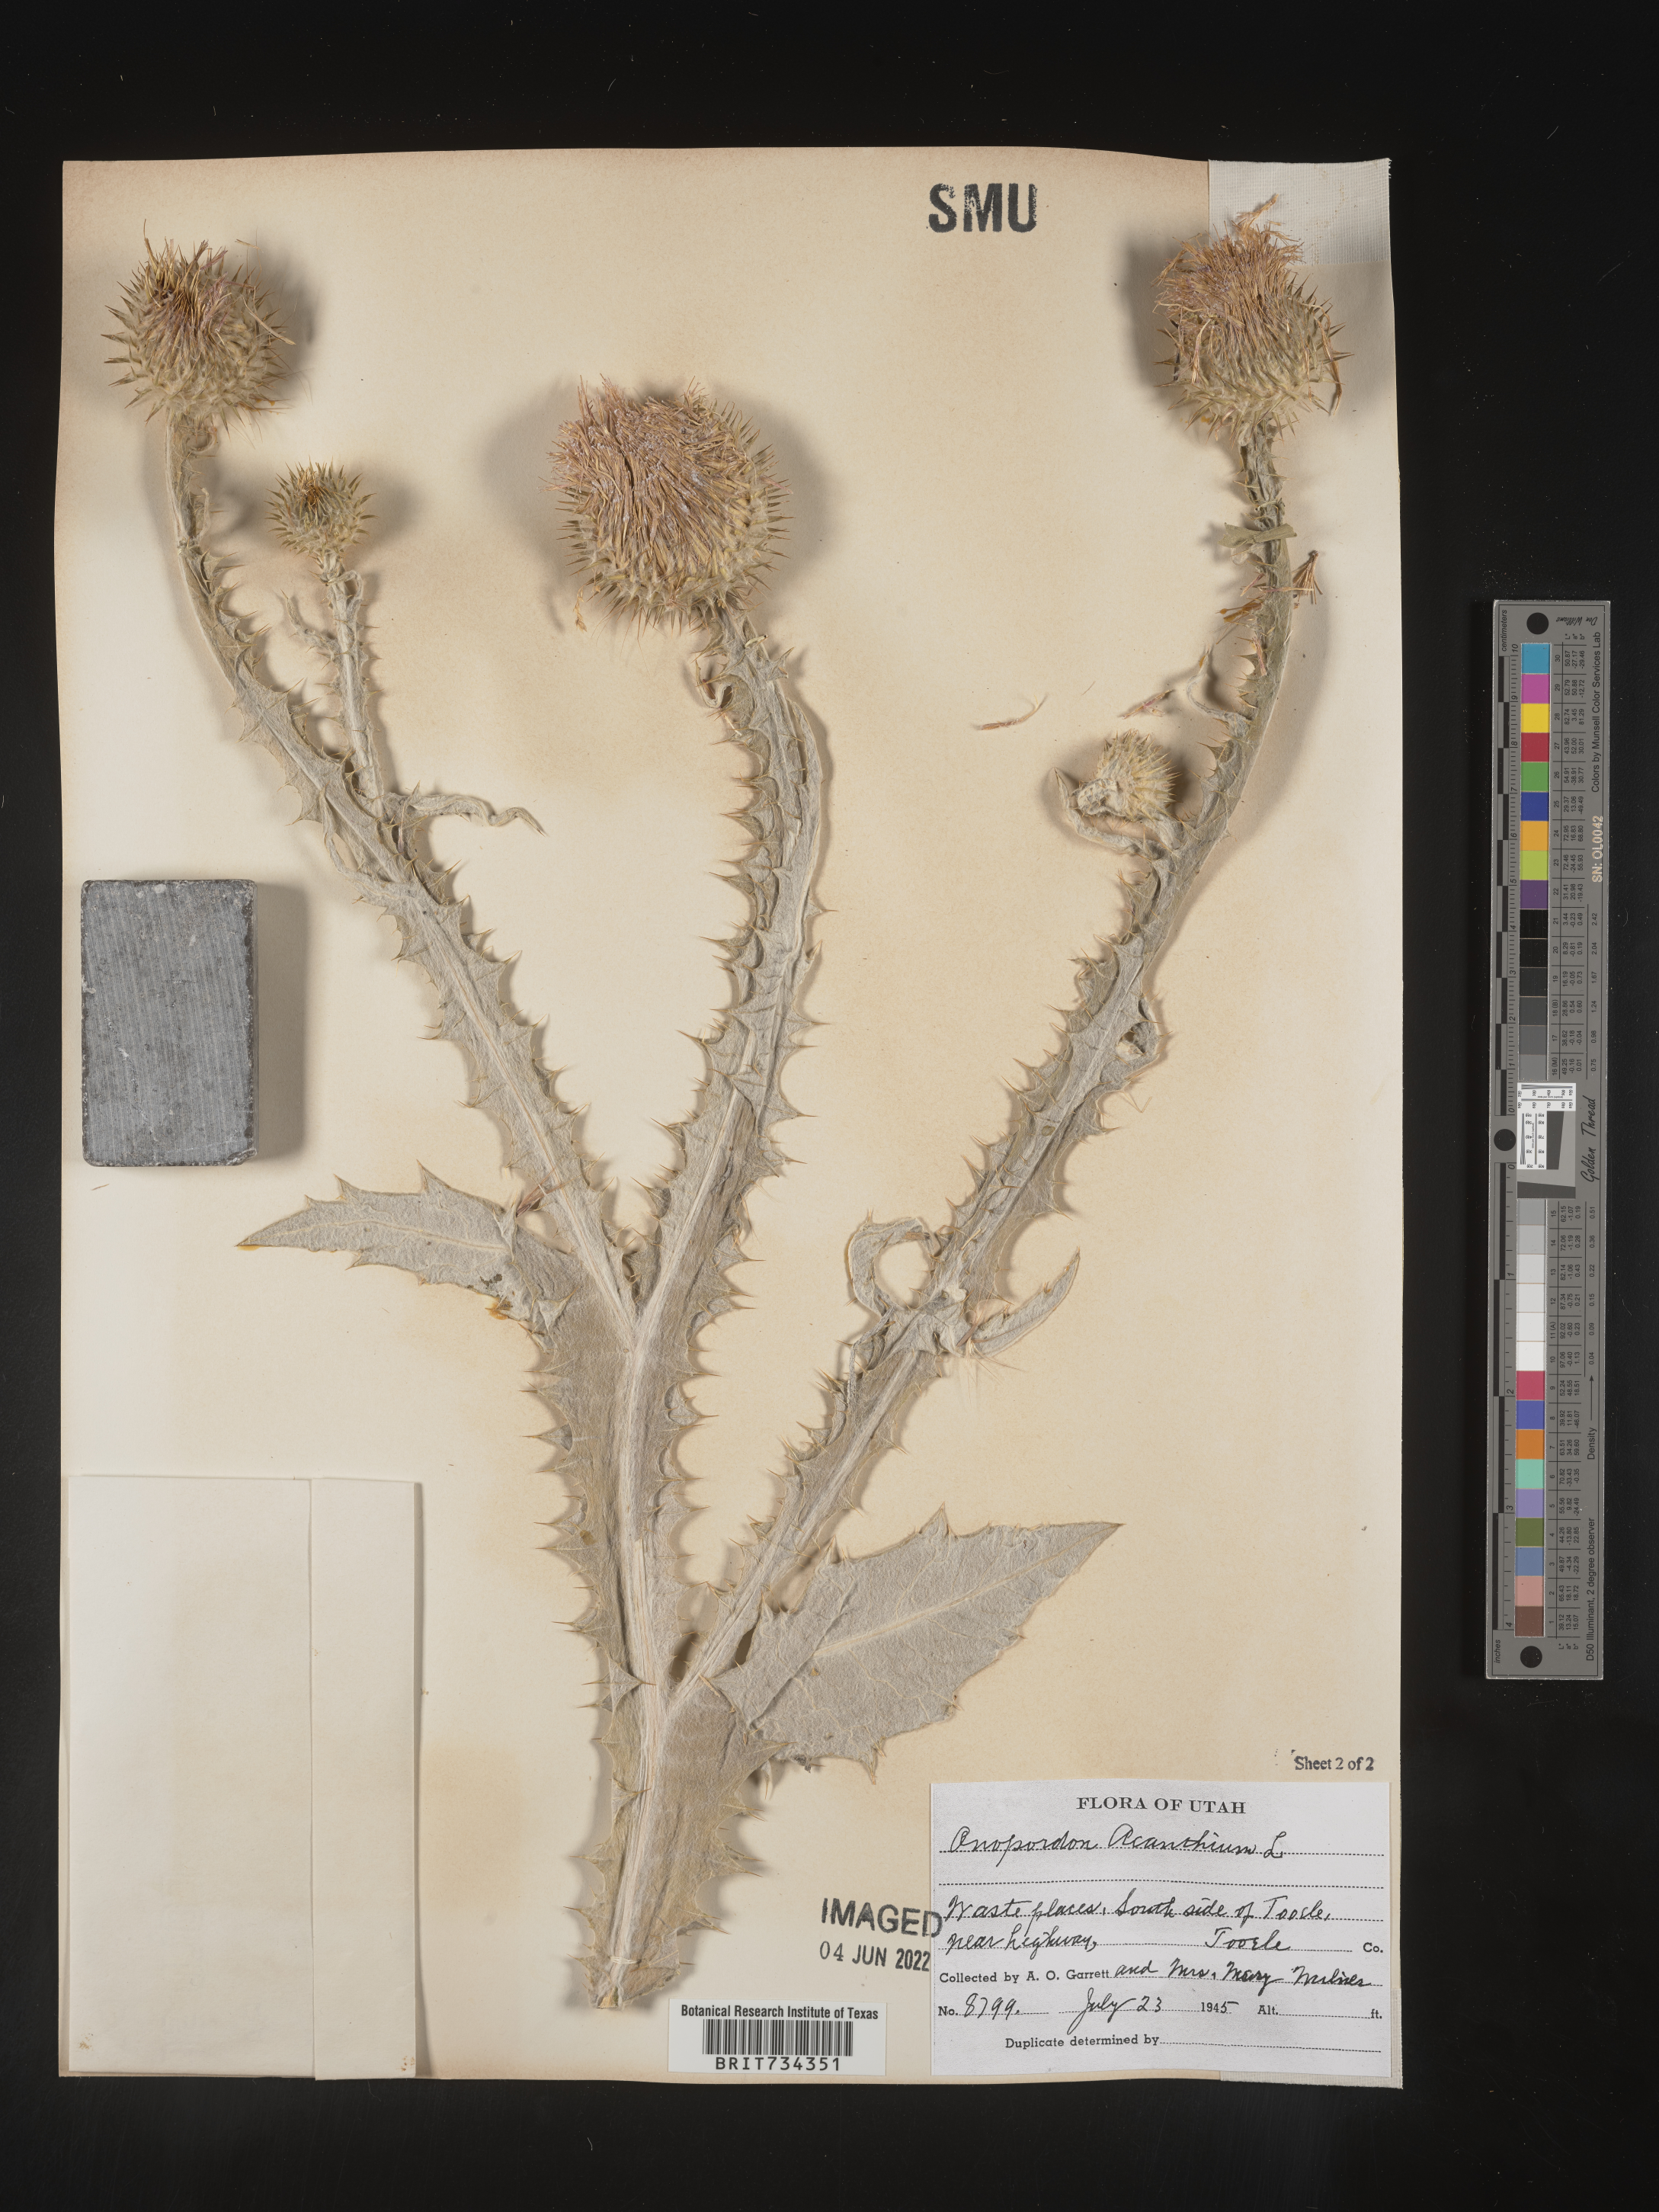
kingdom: Plantae
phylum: Tracheophyta
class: Magnoliopsida
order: Asterales
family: Asteraceae
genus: Onopordum
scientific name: Onopordum acanthium
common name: Scotch thistle
